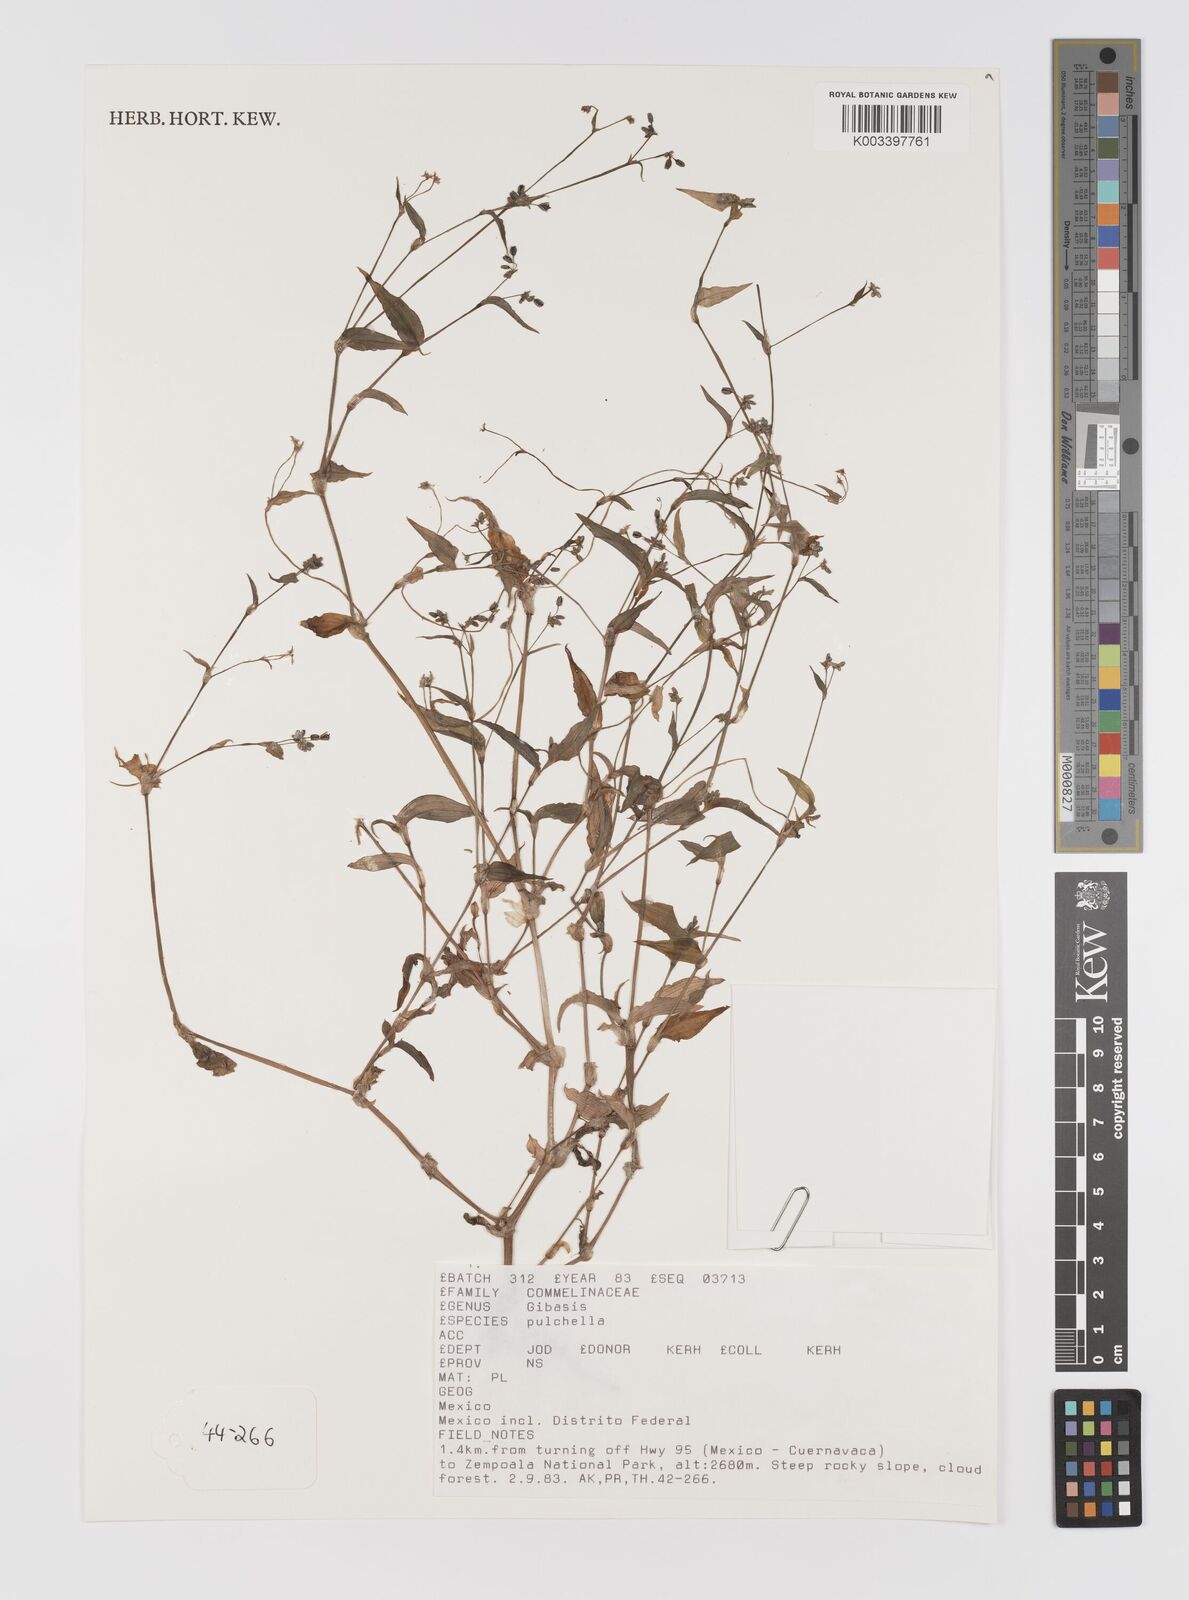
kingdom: Plantae
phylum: Tracheophyta
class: Liliopsida
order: Commelinales
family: Commelinaceae
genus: Gibasis
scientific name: Gibasis pulchella
